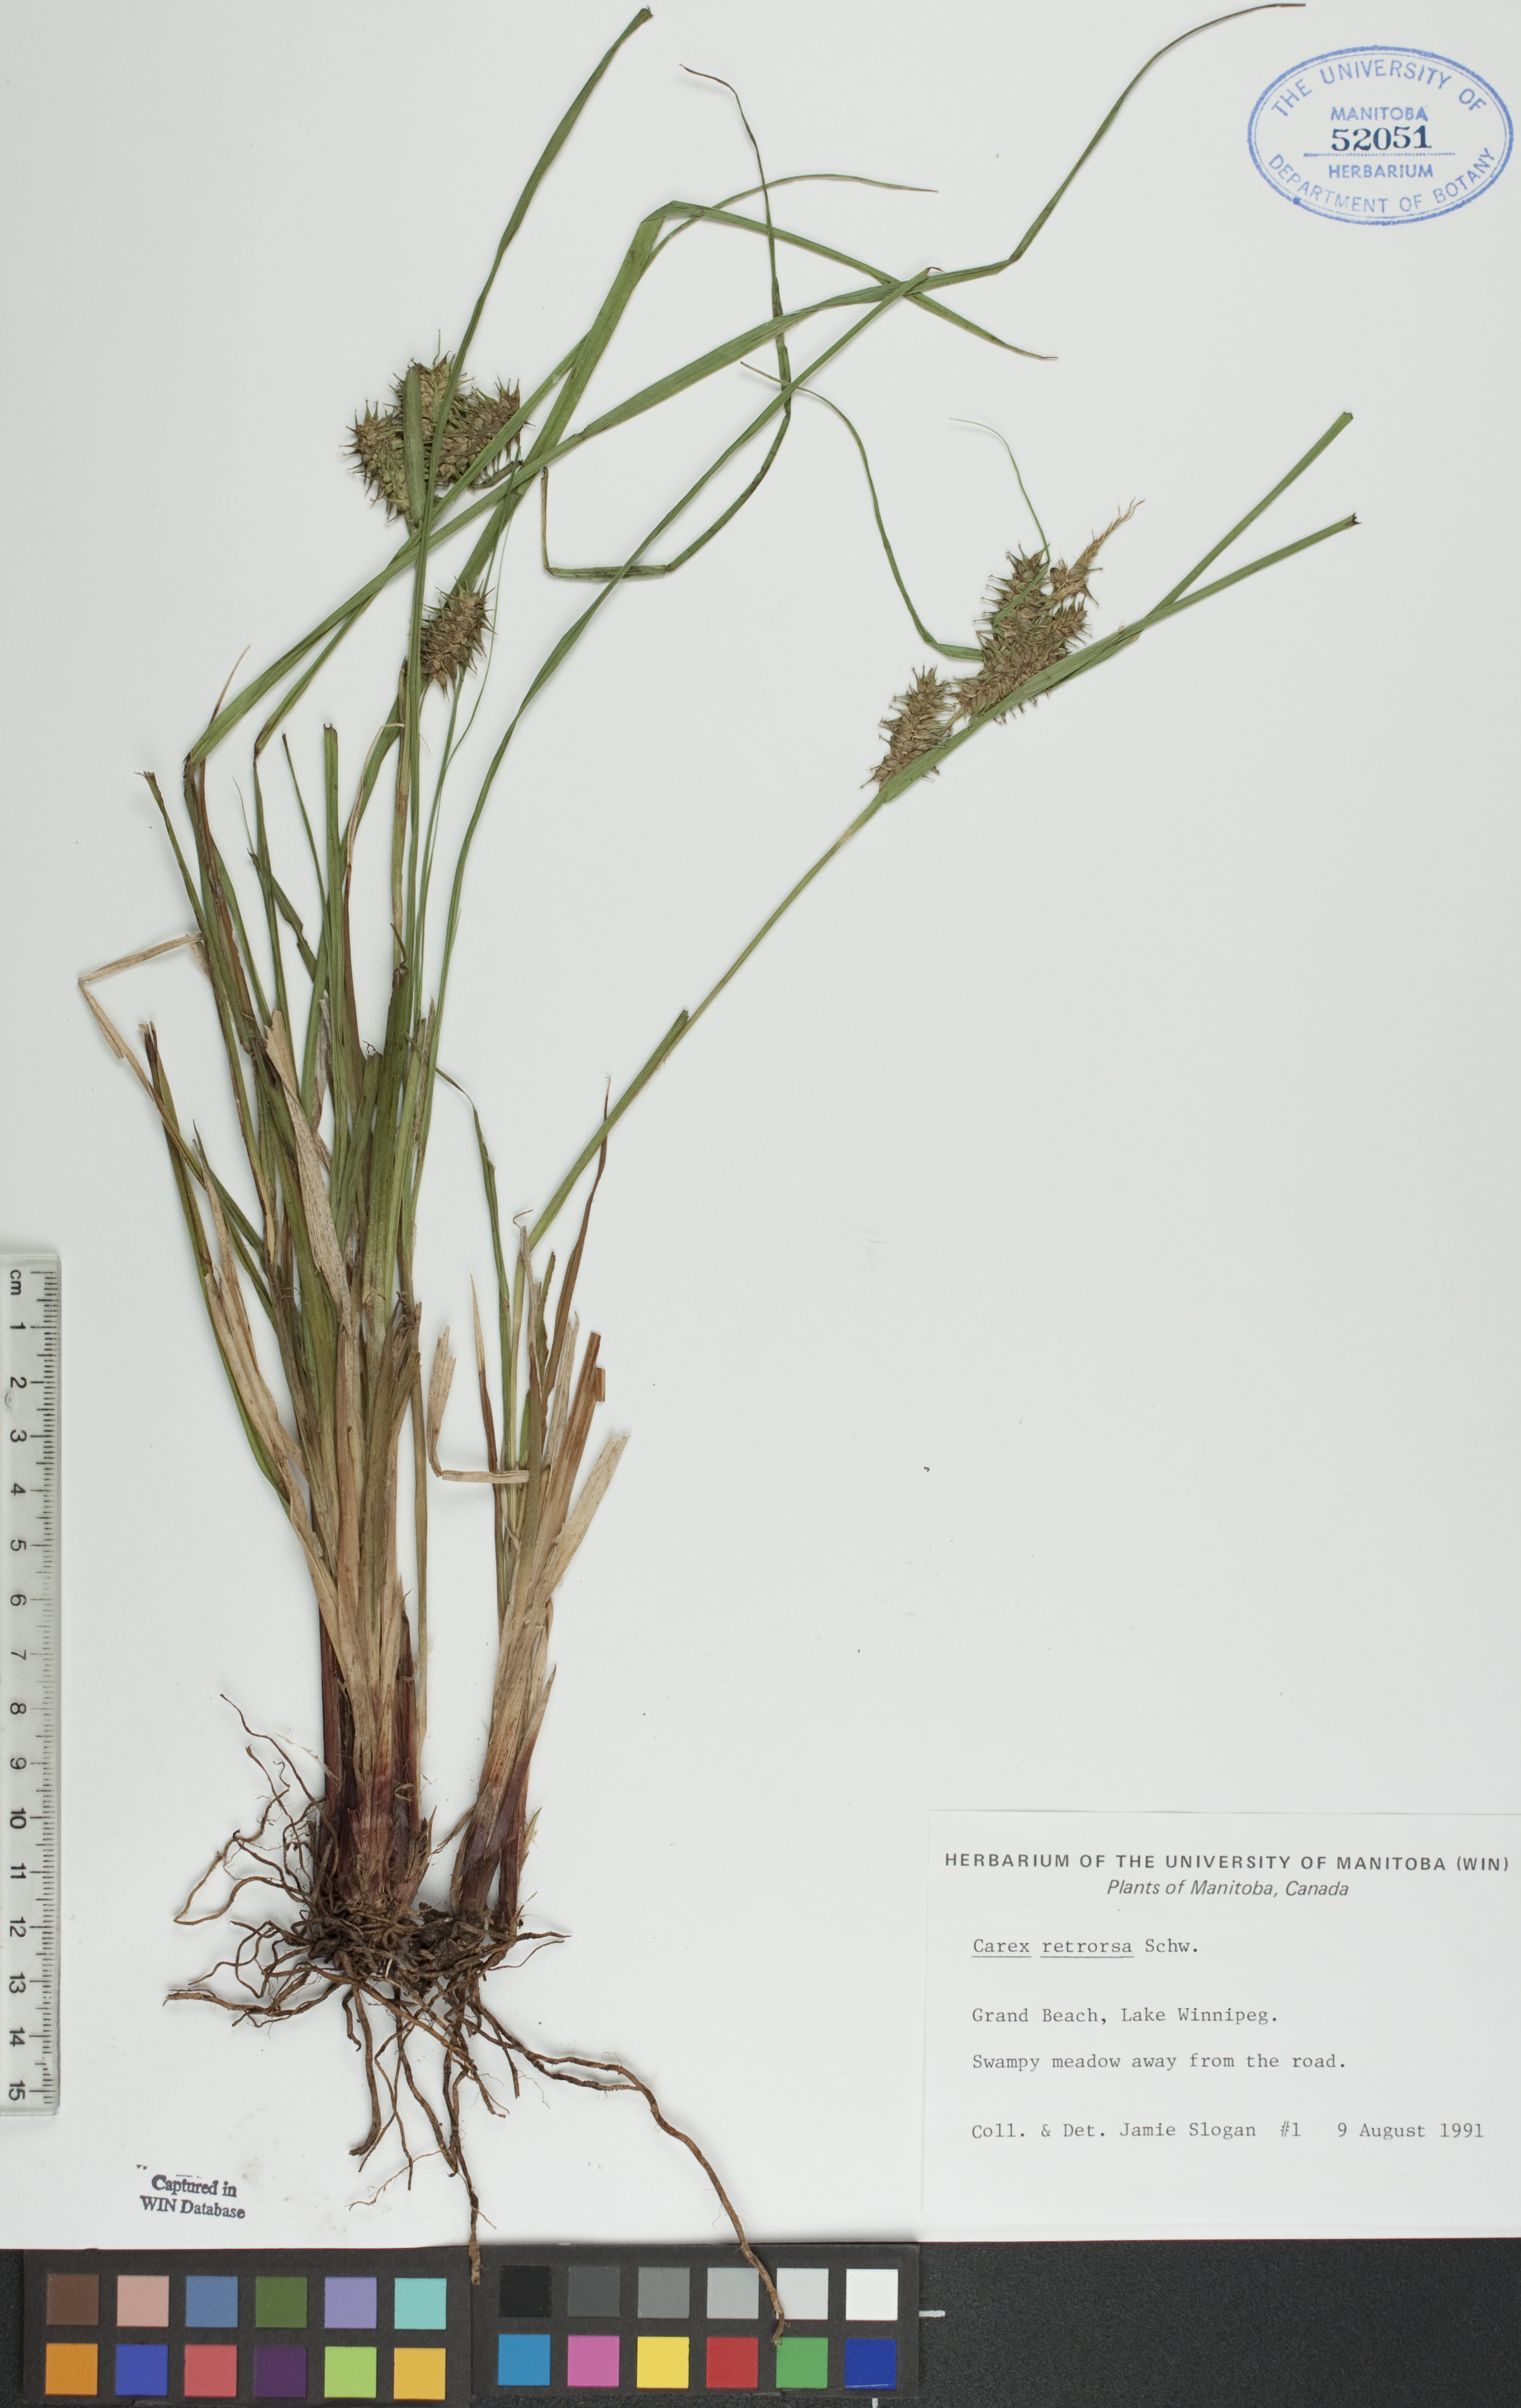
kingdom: Plantae
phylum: Tracheophyta
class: Liliopsida
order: Poales
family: Cyperaceae
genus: Carex
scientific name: Carex retrorsa
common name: Knot-sheath sedge
